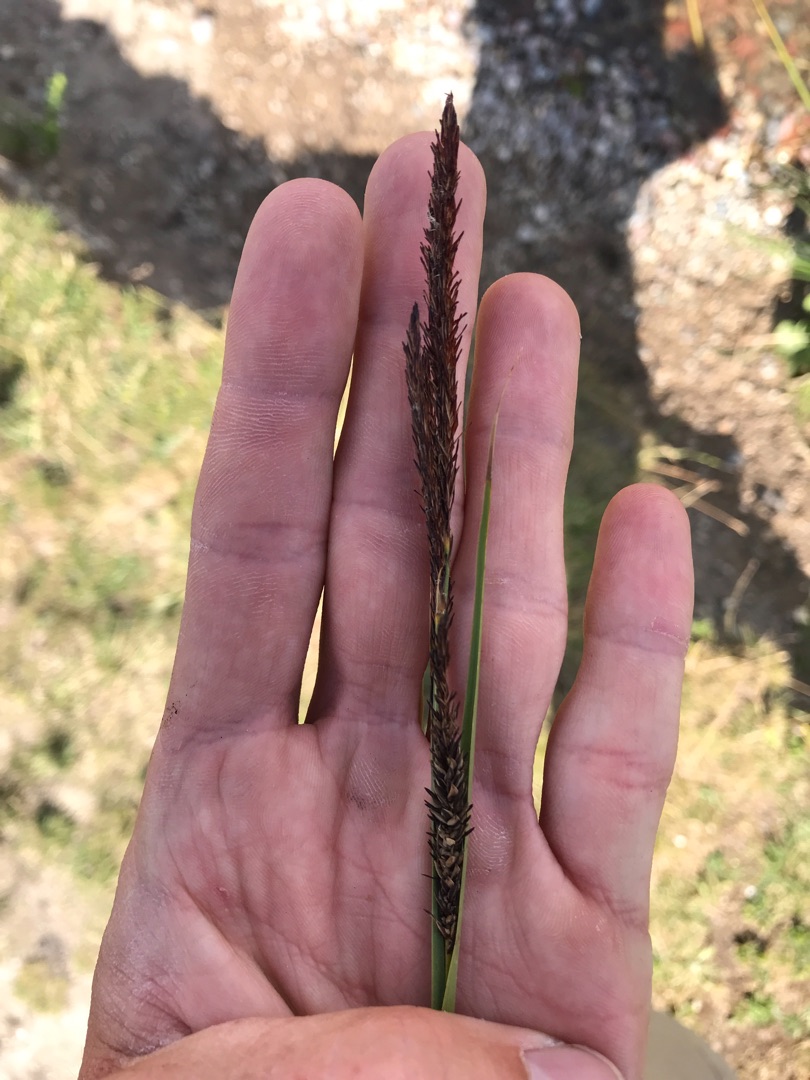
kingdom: Plantae
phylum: Tracheophyta
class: Liliopsida
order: Poales
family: Cyperaceae
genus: Carex
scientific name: Carex elata
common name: Stiv star
